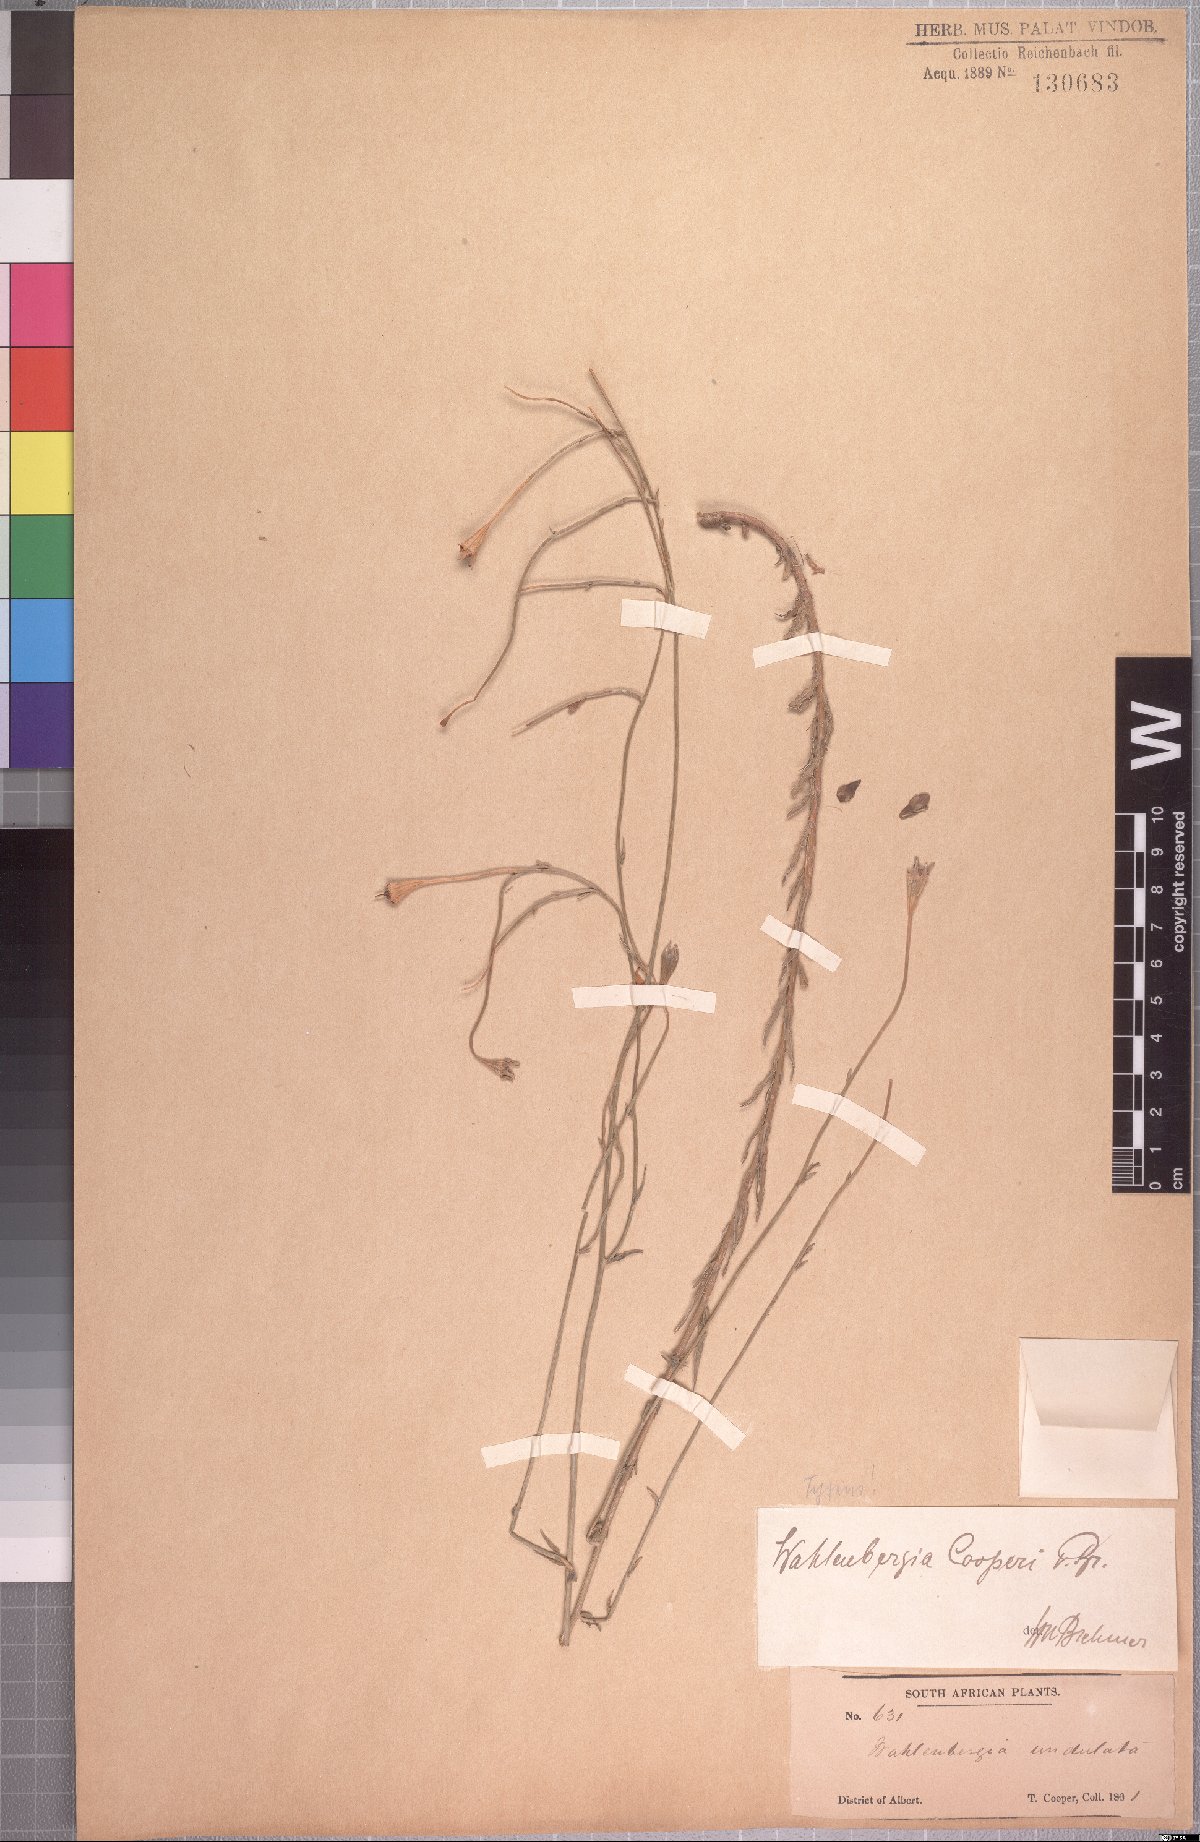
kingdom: Plantae
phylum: Tracheophyta
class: Magnoliopsida
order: Asterales
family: Campanulaceae
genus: Wahlenbergia
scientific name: Wahlenbergia cooperi
